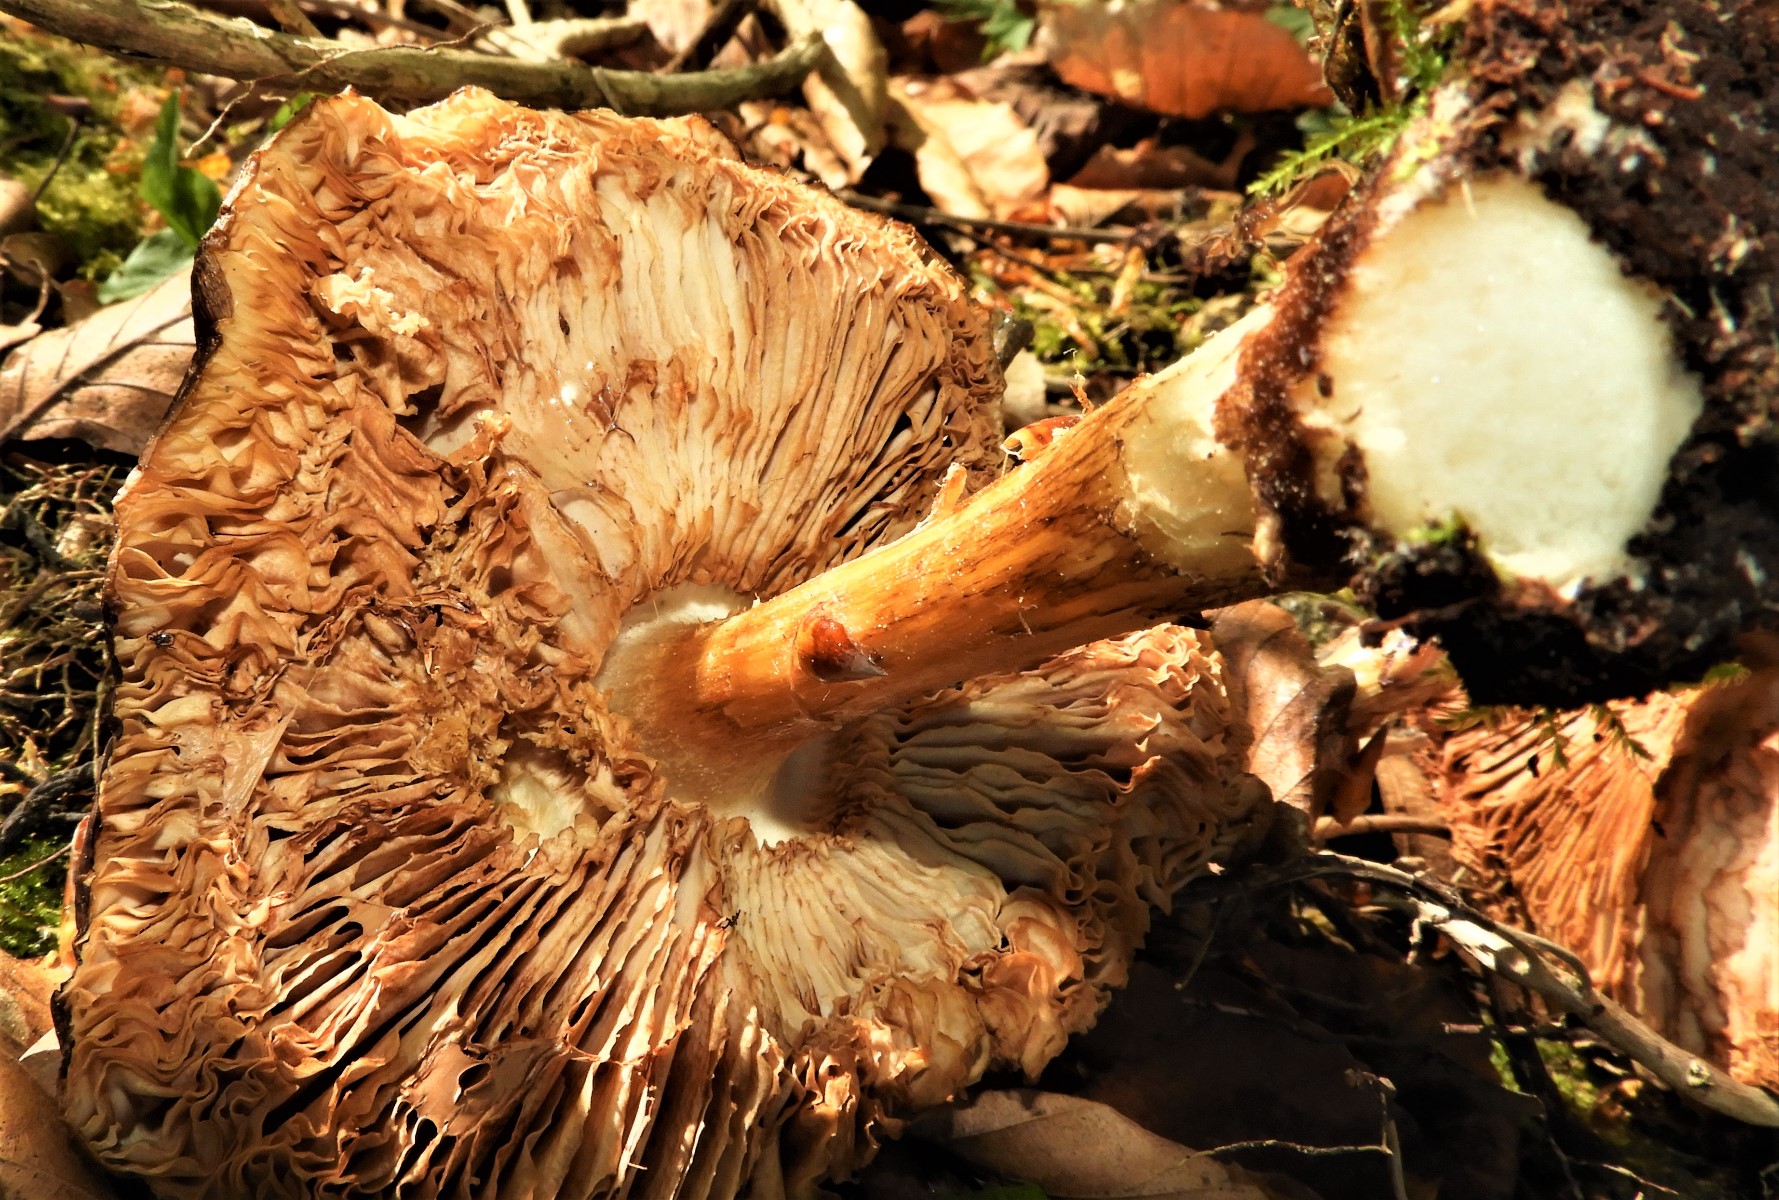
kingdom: Fungi
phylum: Basidiomycota
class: Agaricomycetes
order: Agaricales
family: Pluteaceae
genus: Pluteus
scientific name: Pluteus cervinus
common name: sodfarvet skærmhat
